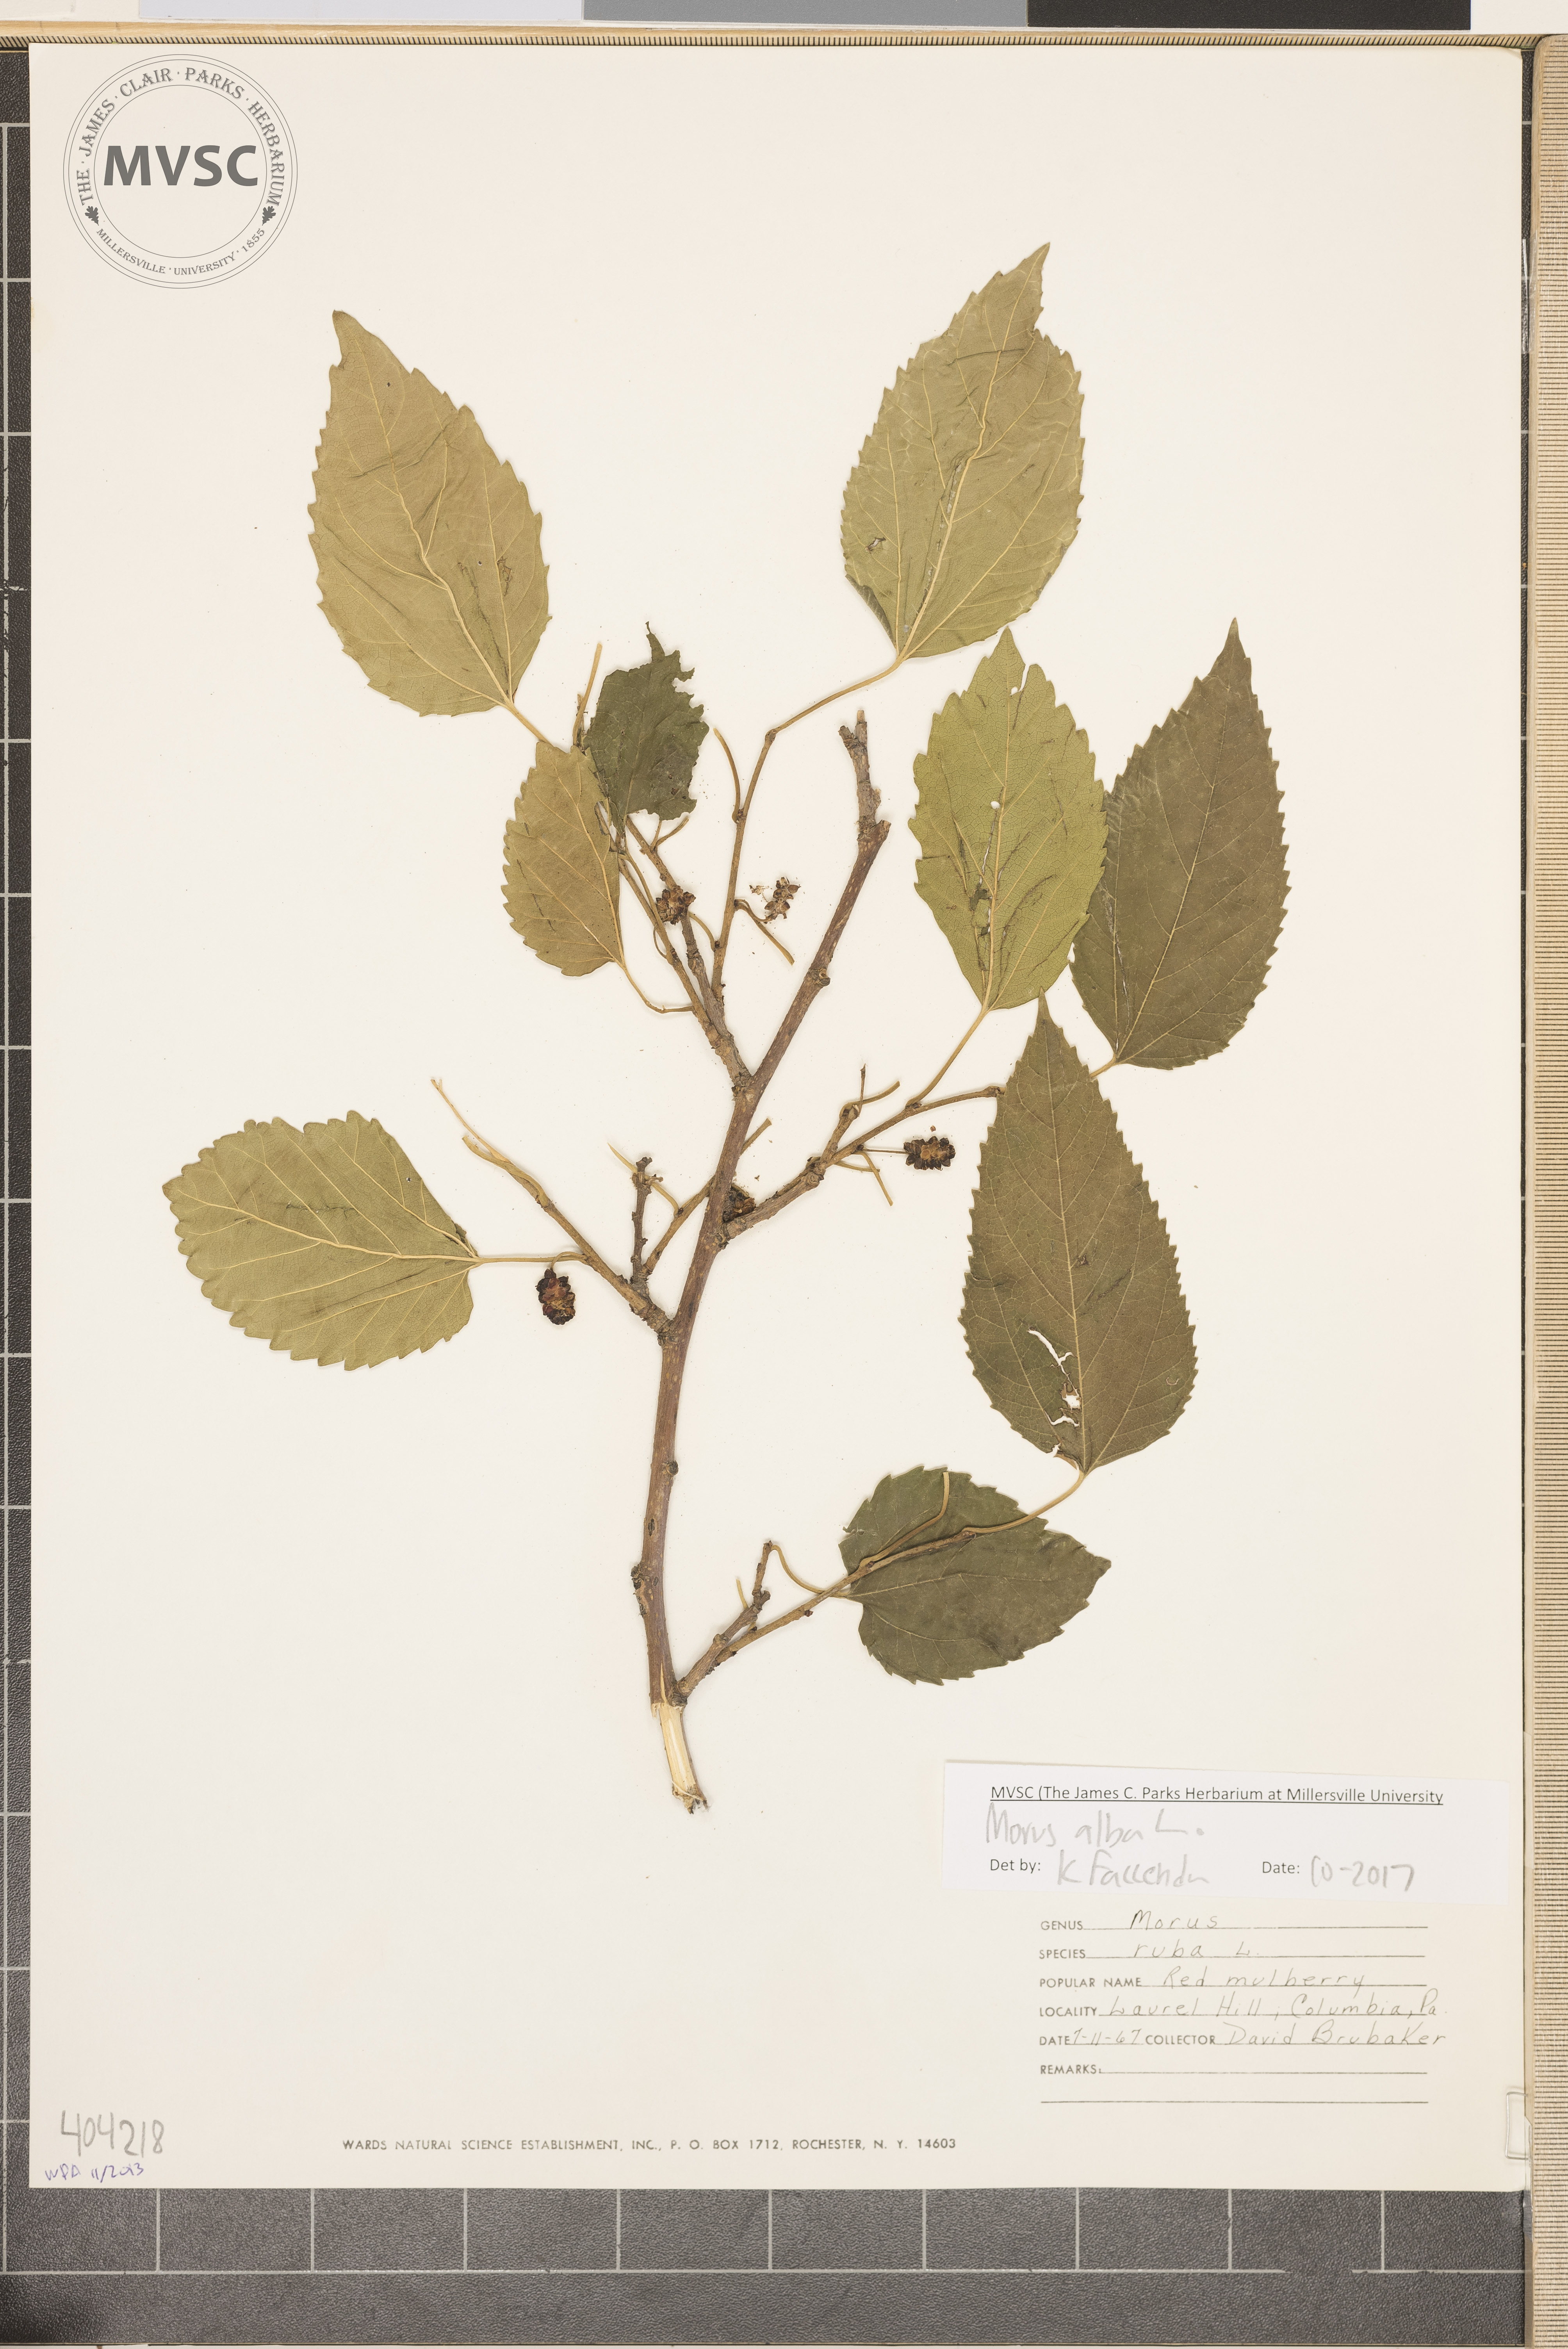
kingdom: Plantae
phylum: Tracheophyta
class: Magnoliopsida
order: Rosales
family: Moraceae
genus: Morus
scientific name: Morus alba
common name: White mulberry
